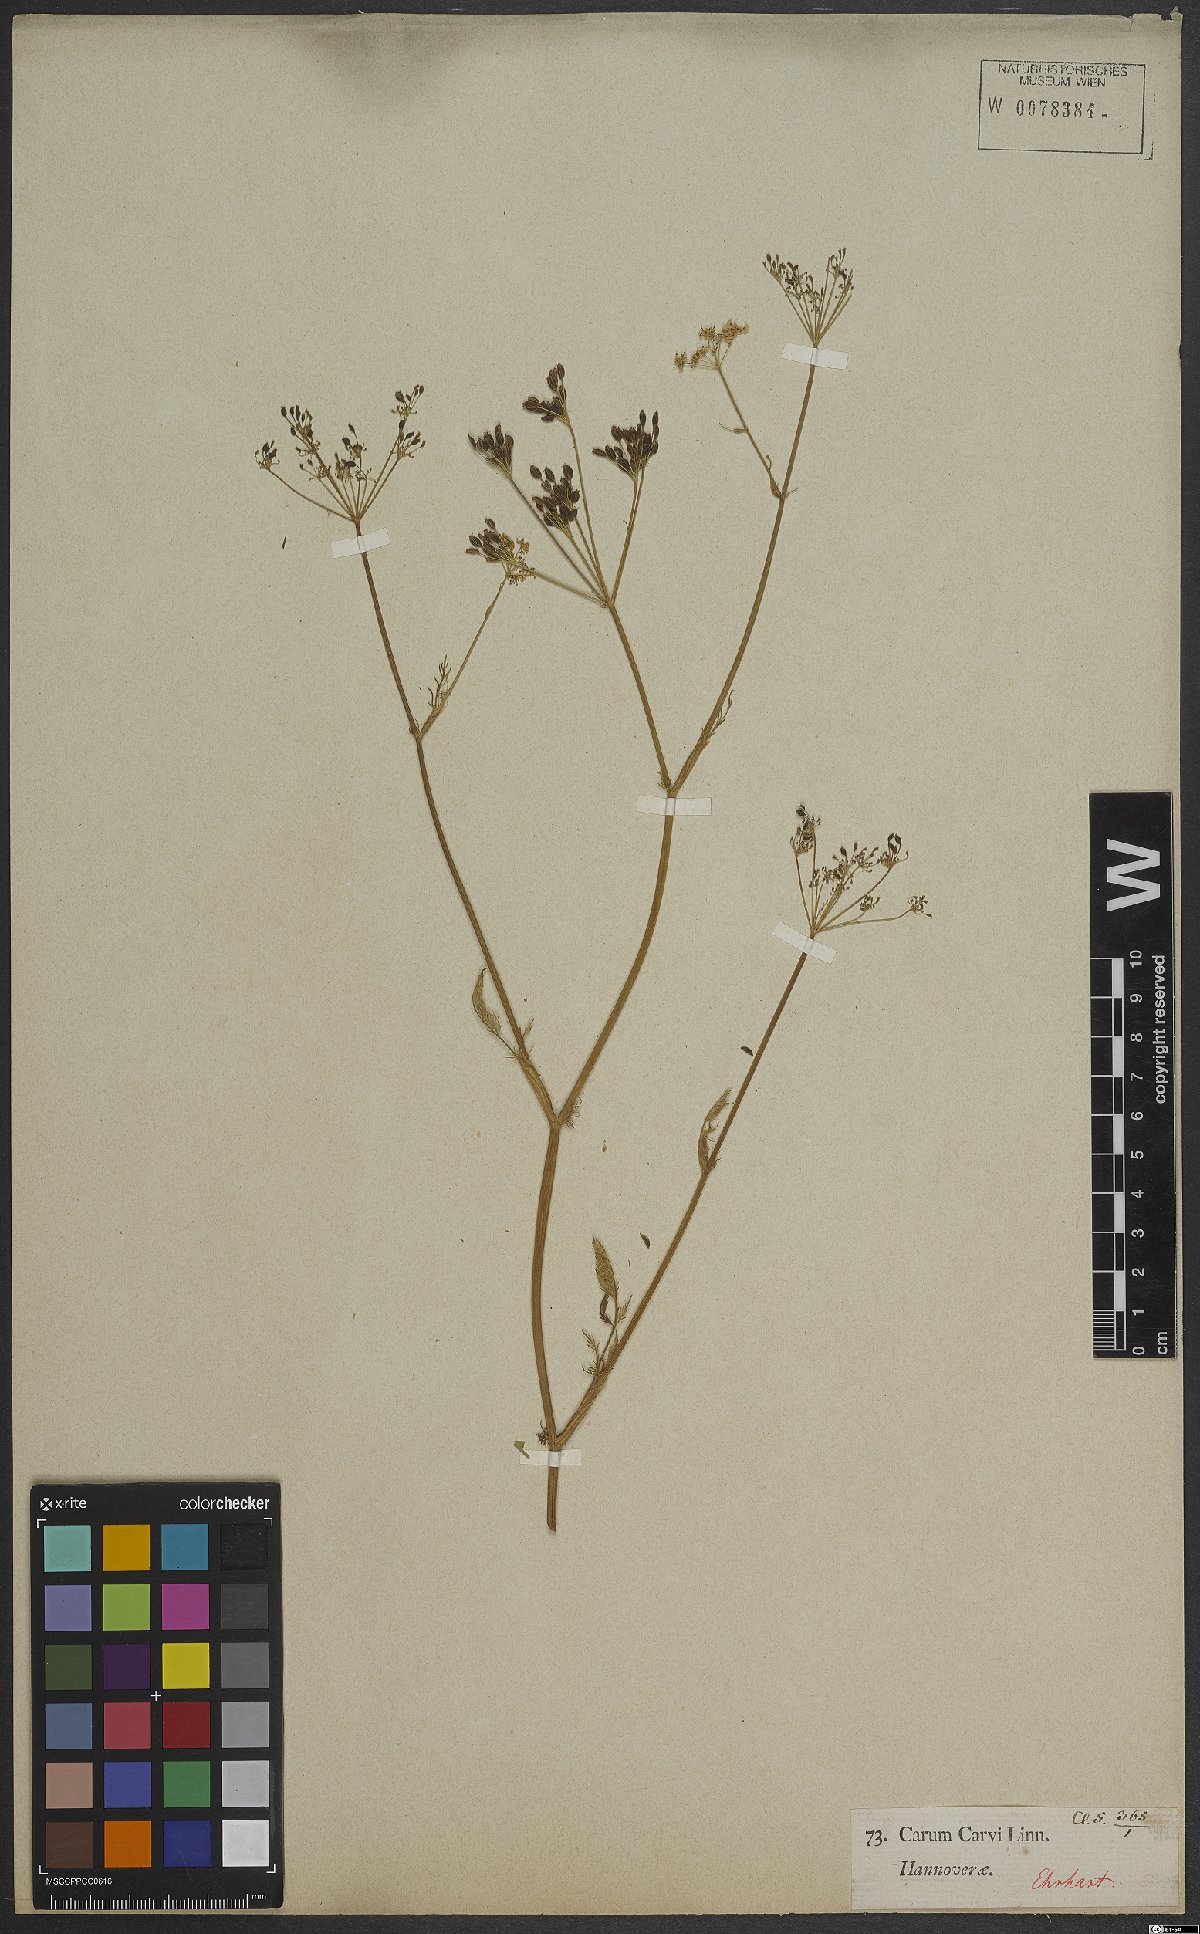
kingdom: Plantae
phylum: Tracheophyta
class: Magnoliopsida
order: Apiales
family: Apiaceae
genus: Carum
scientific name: Carum carvi
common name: Caraway
